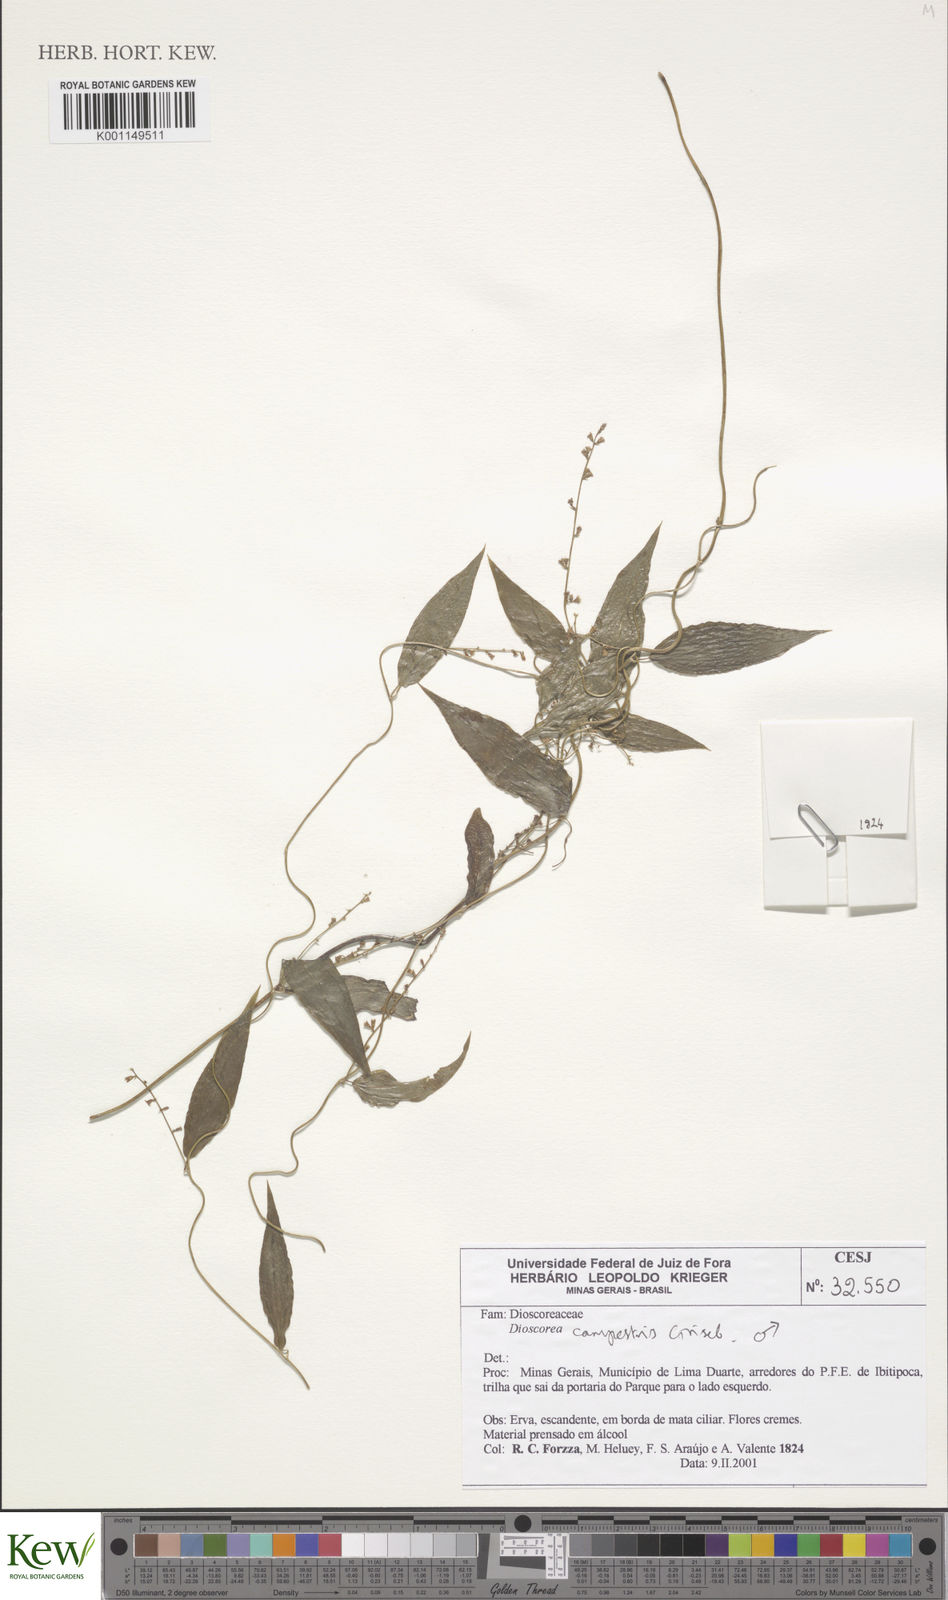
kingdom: Plantae
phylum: Tracheophyta
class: Liliopsida
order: Dioscoreales
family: Dioscoreaceae
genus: Dioscorea
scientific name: Dioscorea campestris
